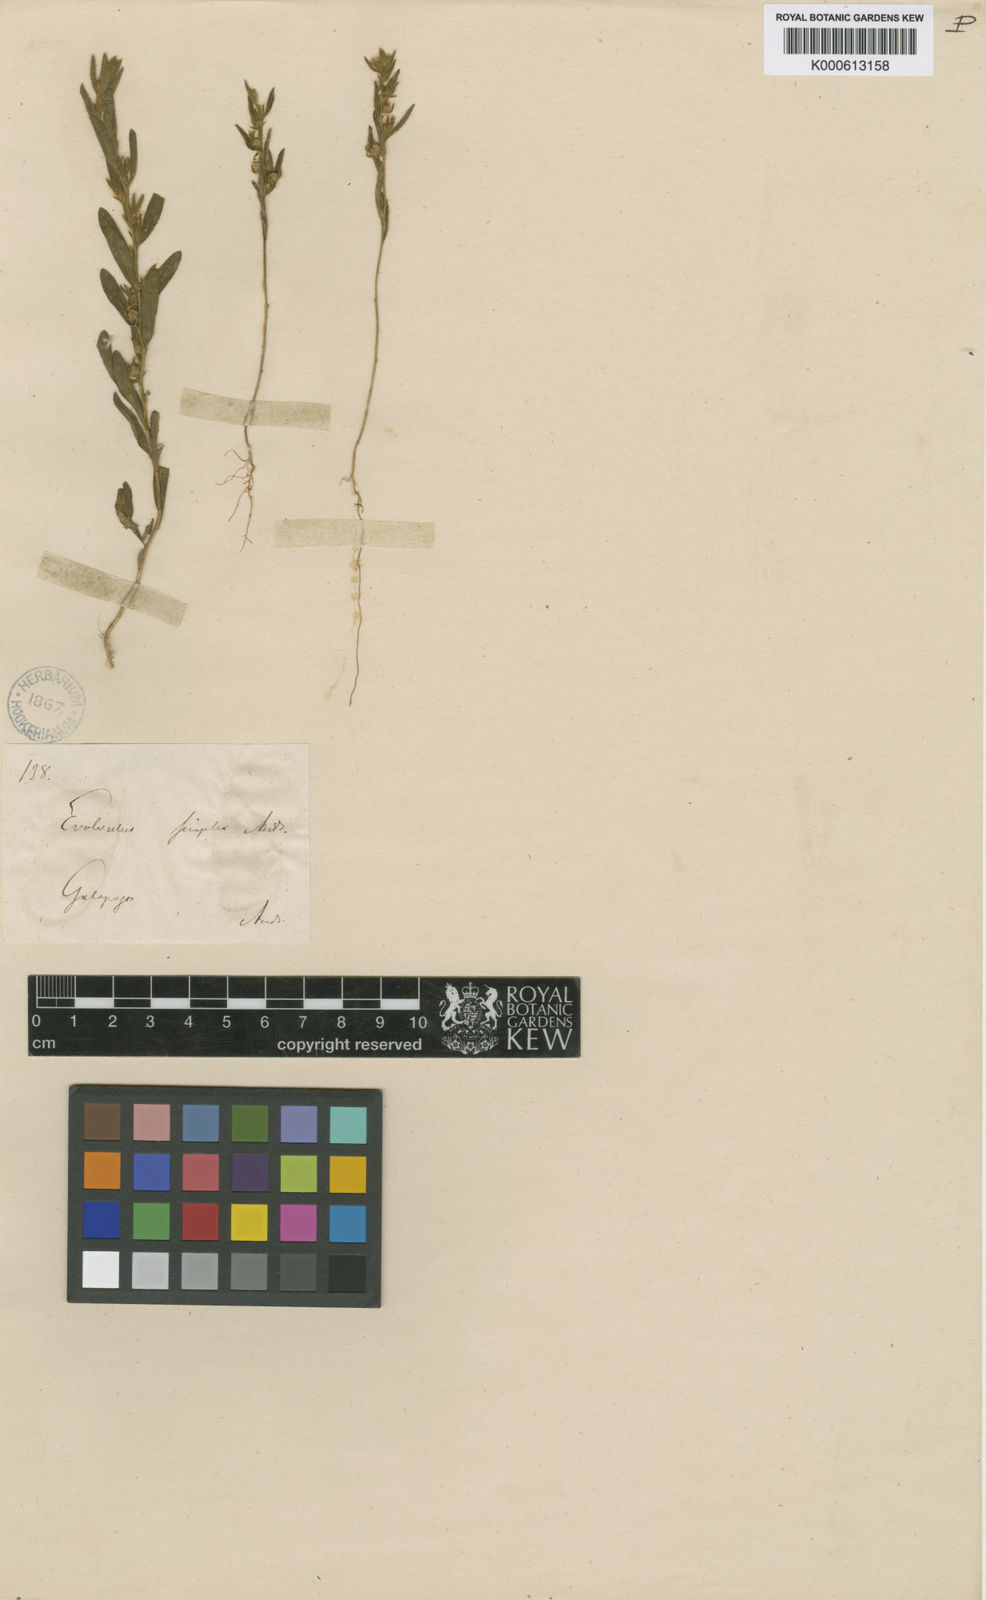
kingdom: Plantae
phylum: Tracheophyta
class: Magnoliopsida
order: Solanales
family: Convolvulaceae
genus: Evolvulus
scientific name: Evolvulus simplex
